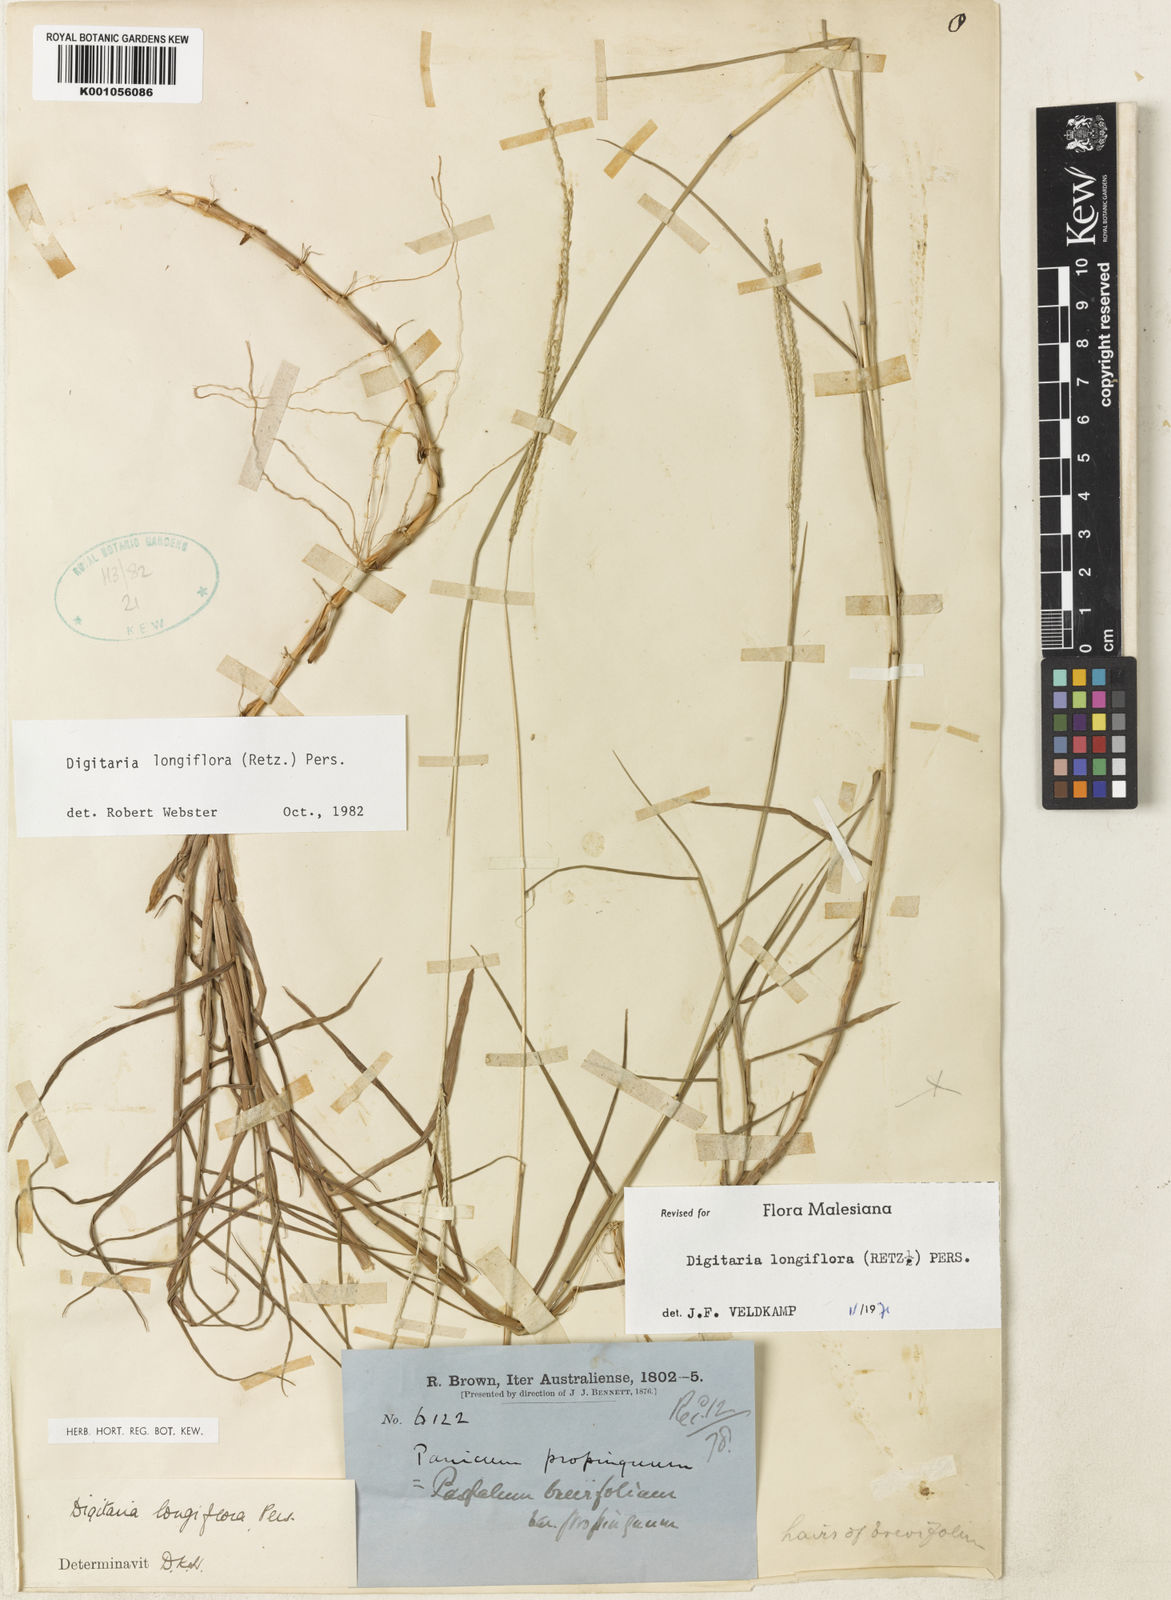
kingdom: Plantae
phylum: Tracheophyta
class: Liliopsida
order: Poales
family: Poaceae
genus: Digitaria
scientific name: Digitaria longiflora
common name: Wire crabgrass
